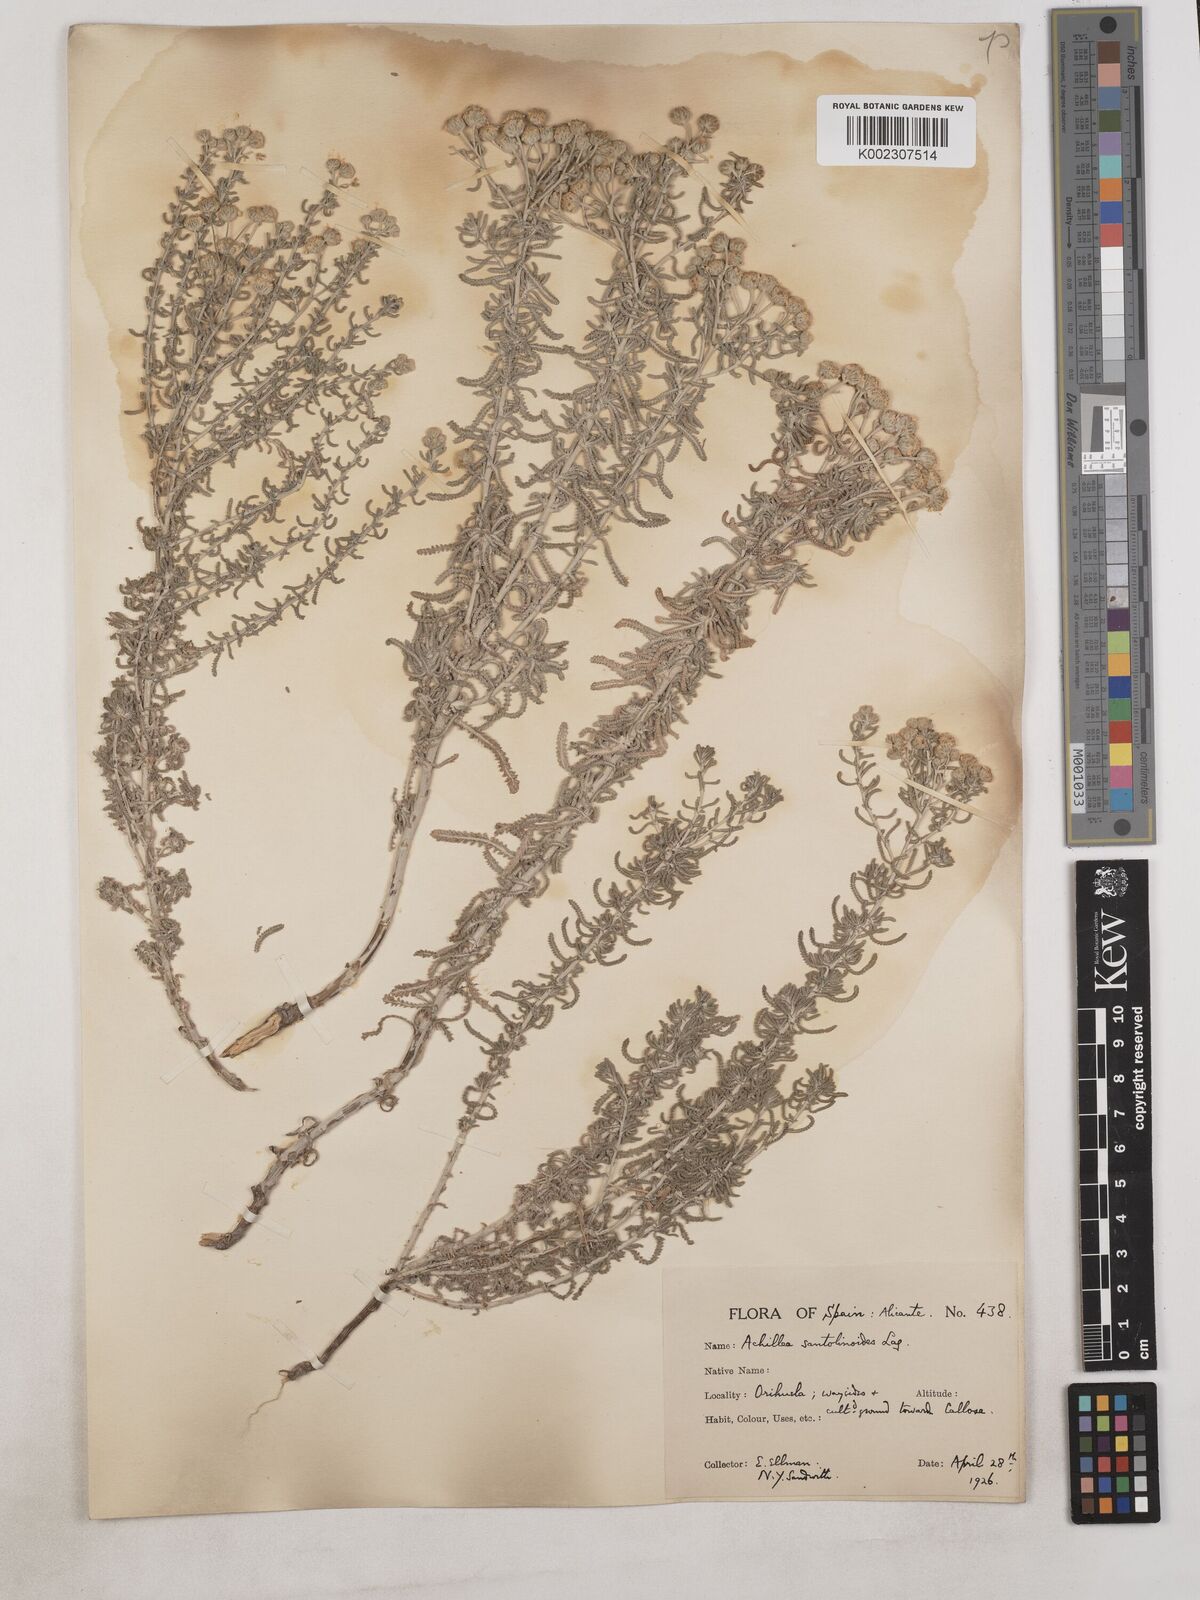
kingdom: Plantae
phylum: Tracheophyta
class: Magnoliopsida
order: Asterales
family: Asteraceae
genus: Achillea
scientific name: Achillea santolinoides
